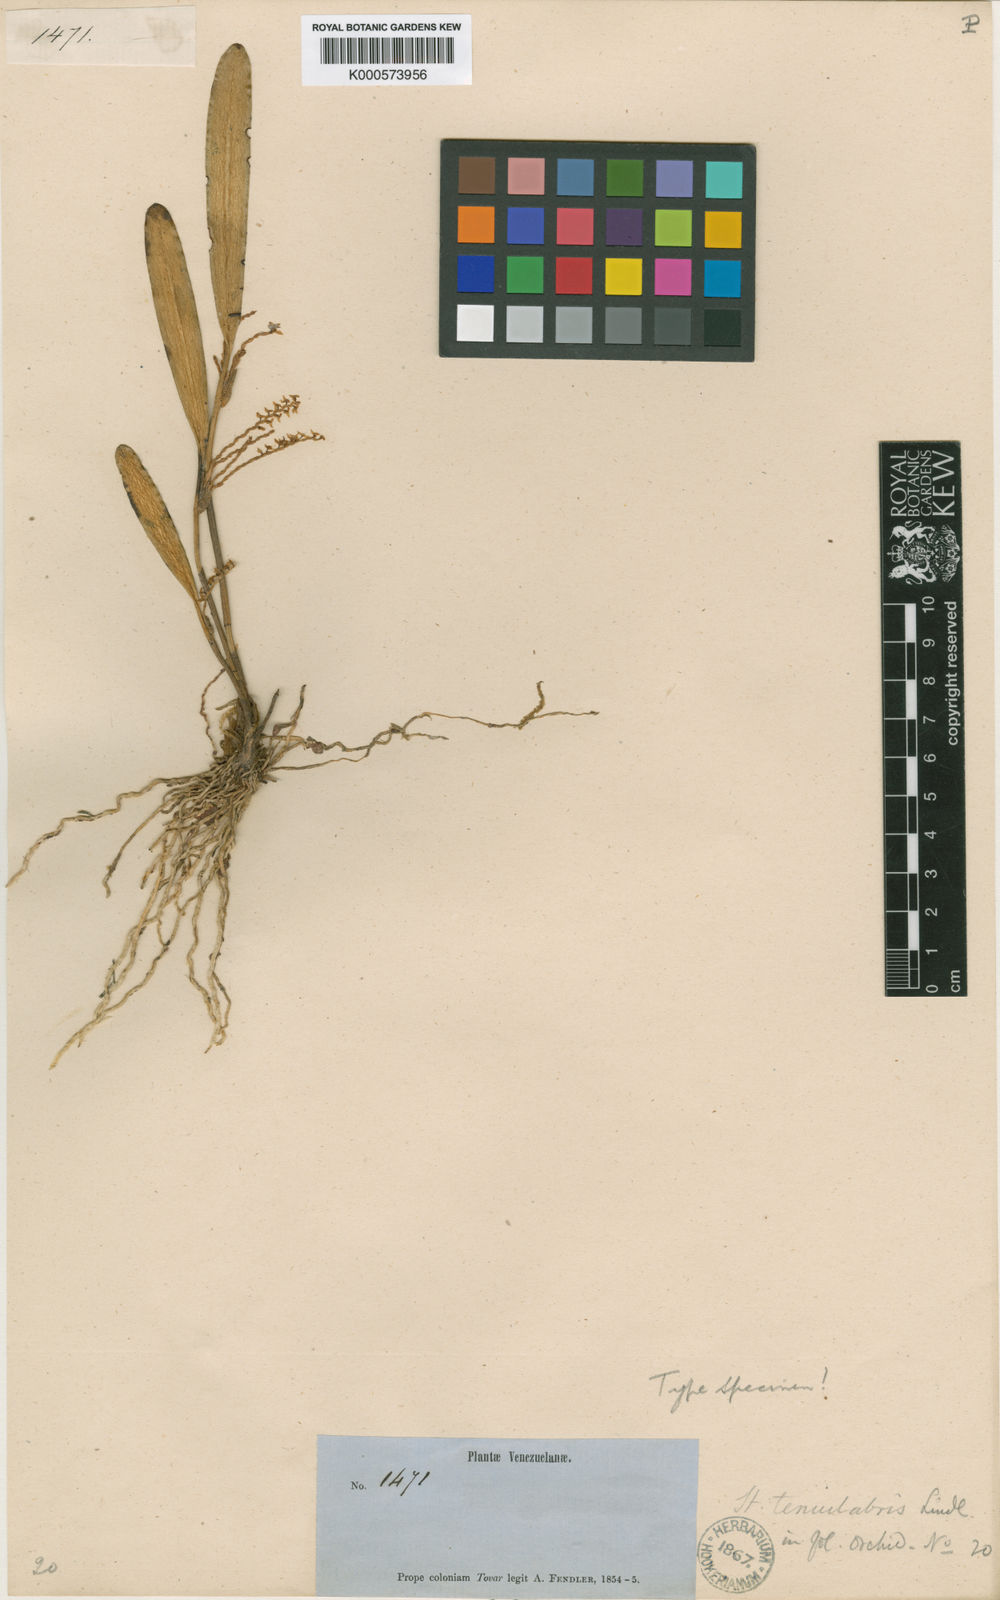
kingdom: Plantae
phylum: Tracheophyta
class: Liliopsida
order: Asparagales
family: Orchidaceae
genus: Stelis
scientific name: Stelis tenuilabris
